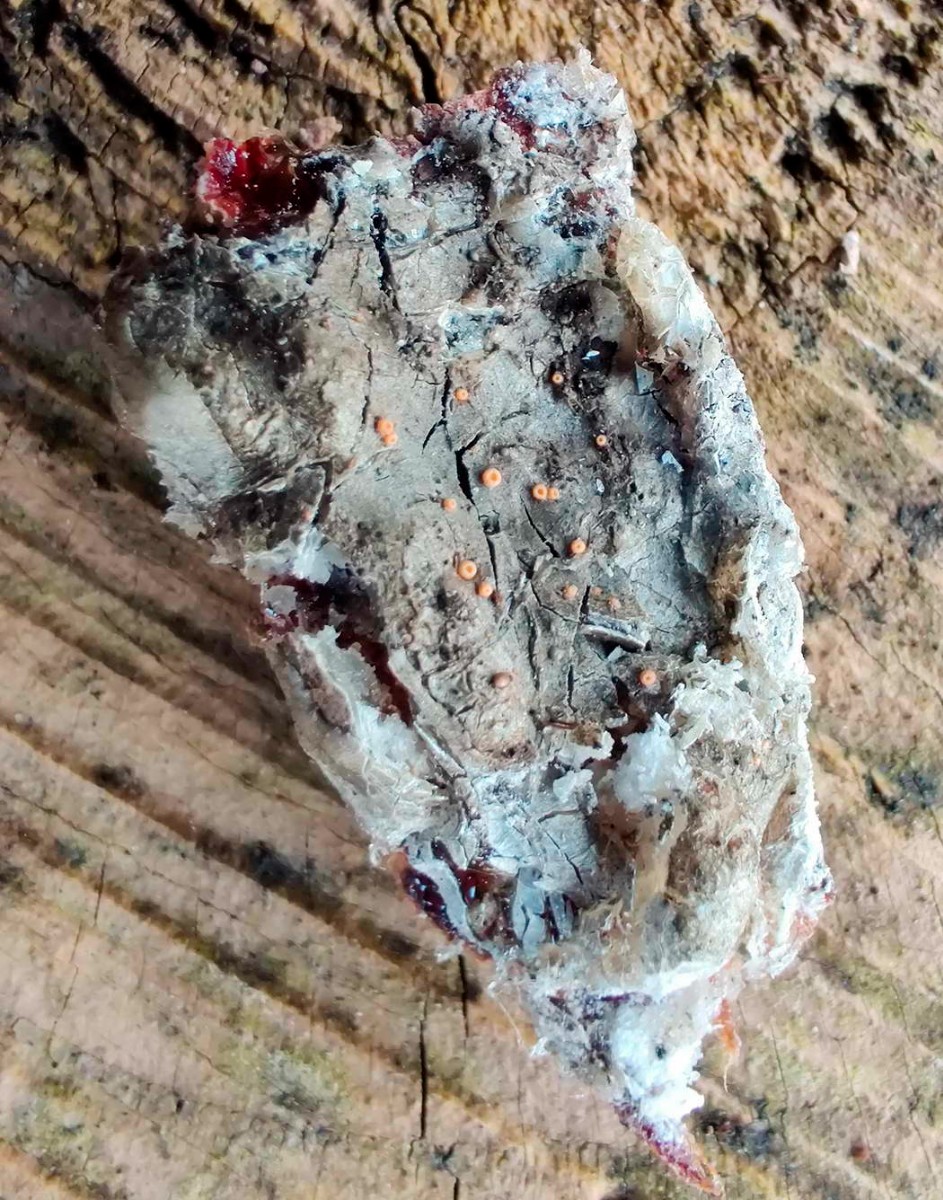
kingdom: Fungi
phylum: Ascomycota
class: Sareomycetes
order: Sareales
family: Sareaceae
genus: Sarea
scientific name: Sarea resinae
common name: orangegul harpiksskive
